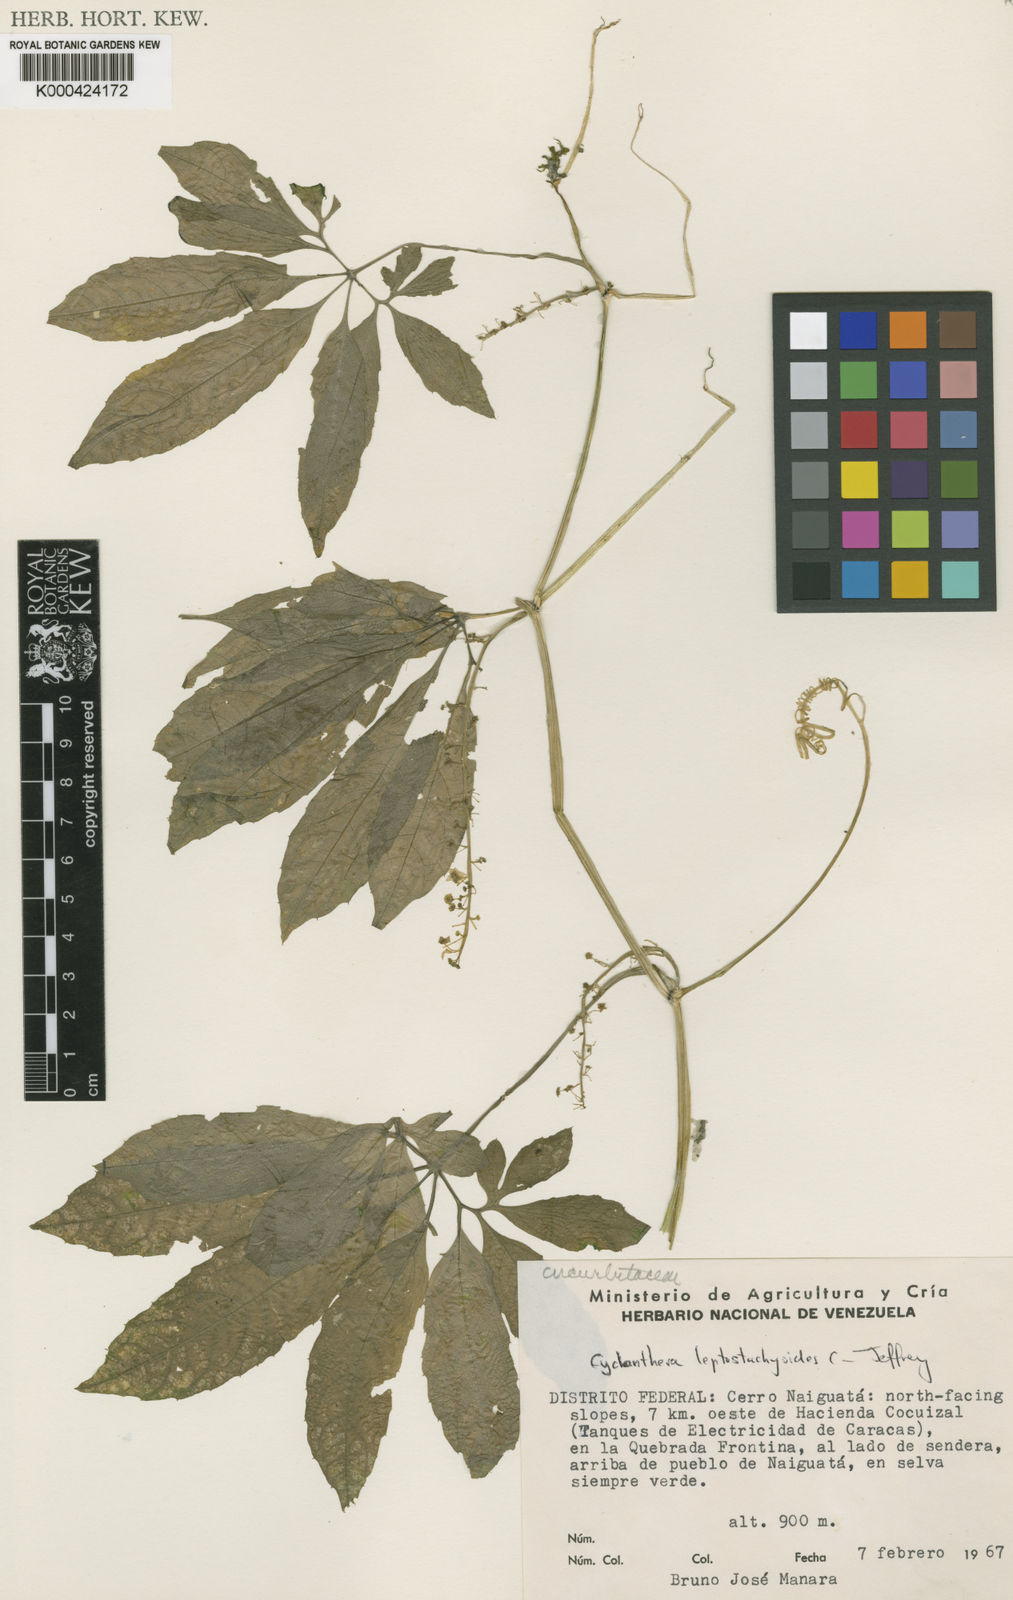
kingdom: Plantae
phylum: Tracheophyta
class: Magnoliopsida
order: Cucurbitales
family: Cucurbitaceae
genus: Cyclanthera
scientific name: Cyclanthera leptostachya
